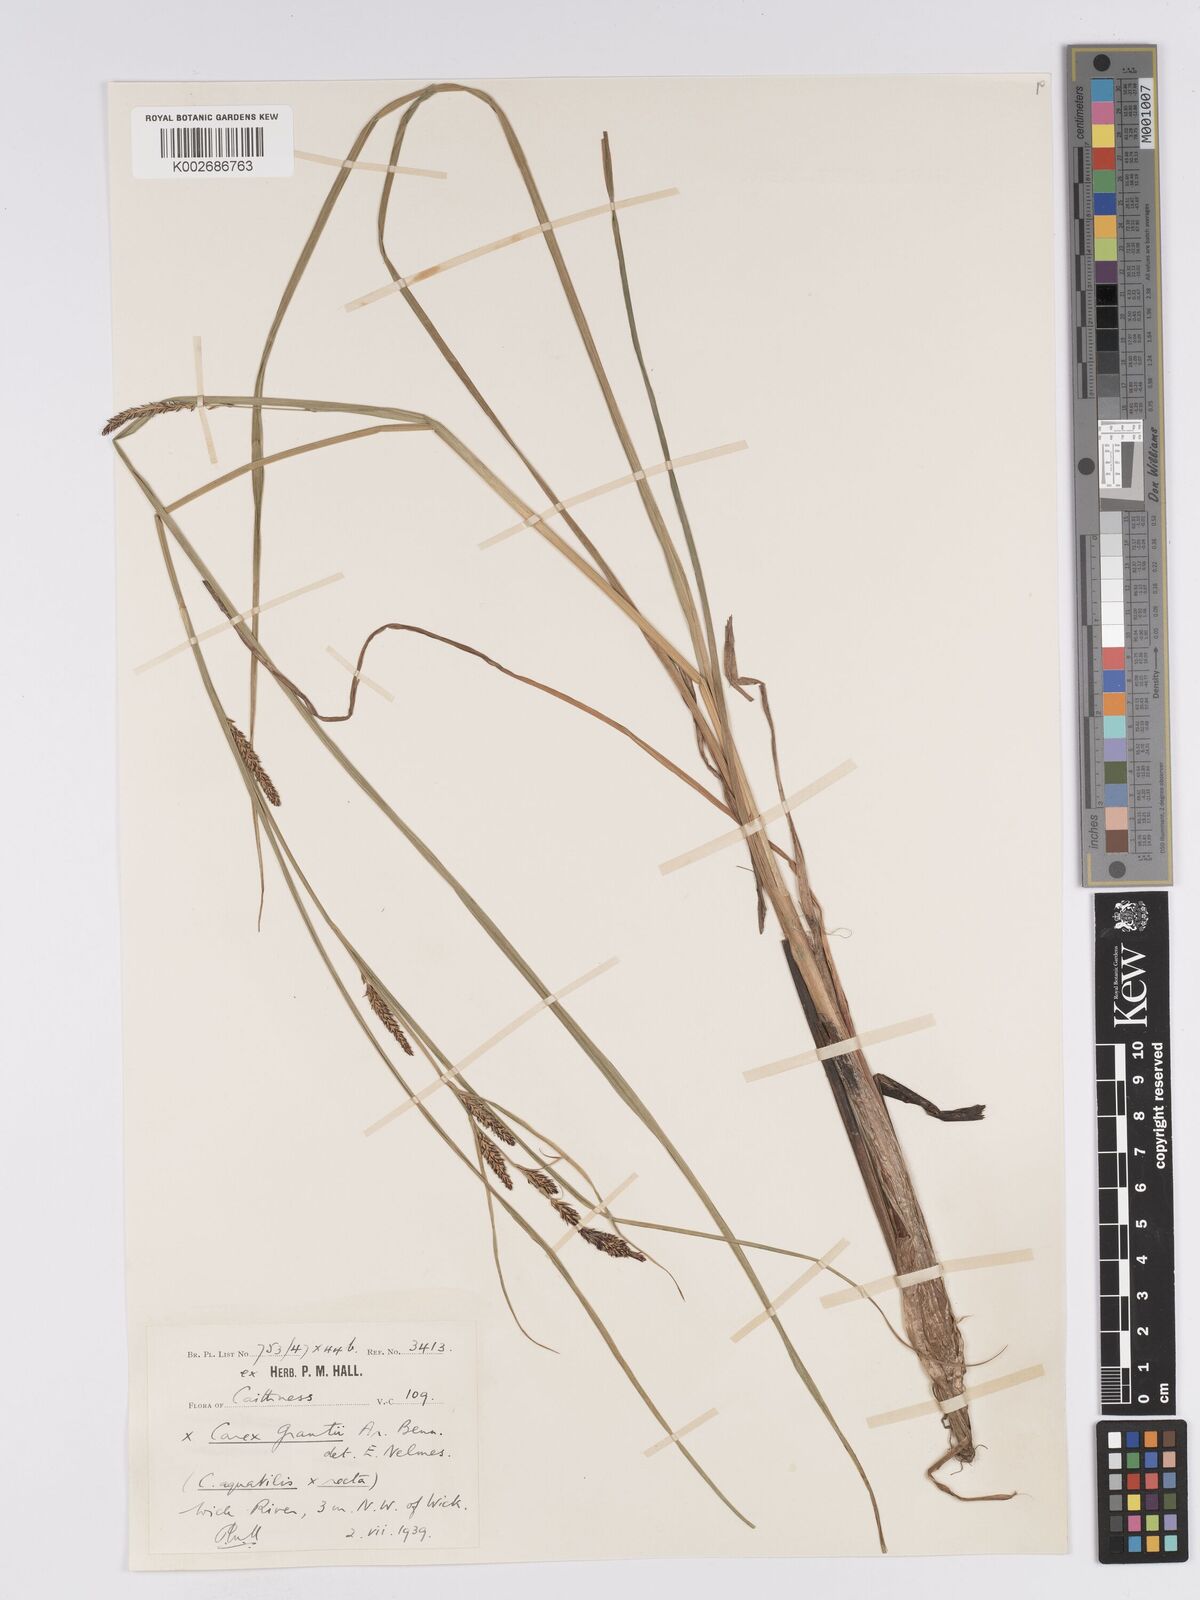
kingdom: Plantae
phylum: Tracheophyta
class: Liliopsida
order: Poales
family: Cyperaceae
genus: Carex
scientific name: Carex grantii
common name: Grant's sedge
